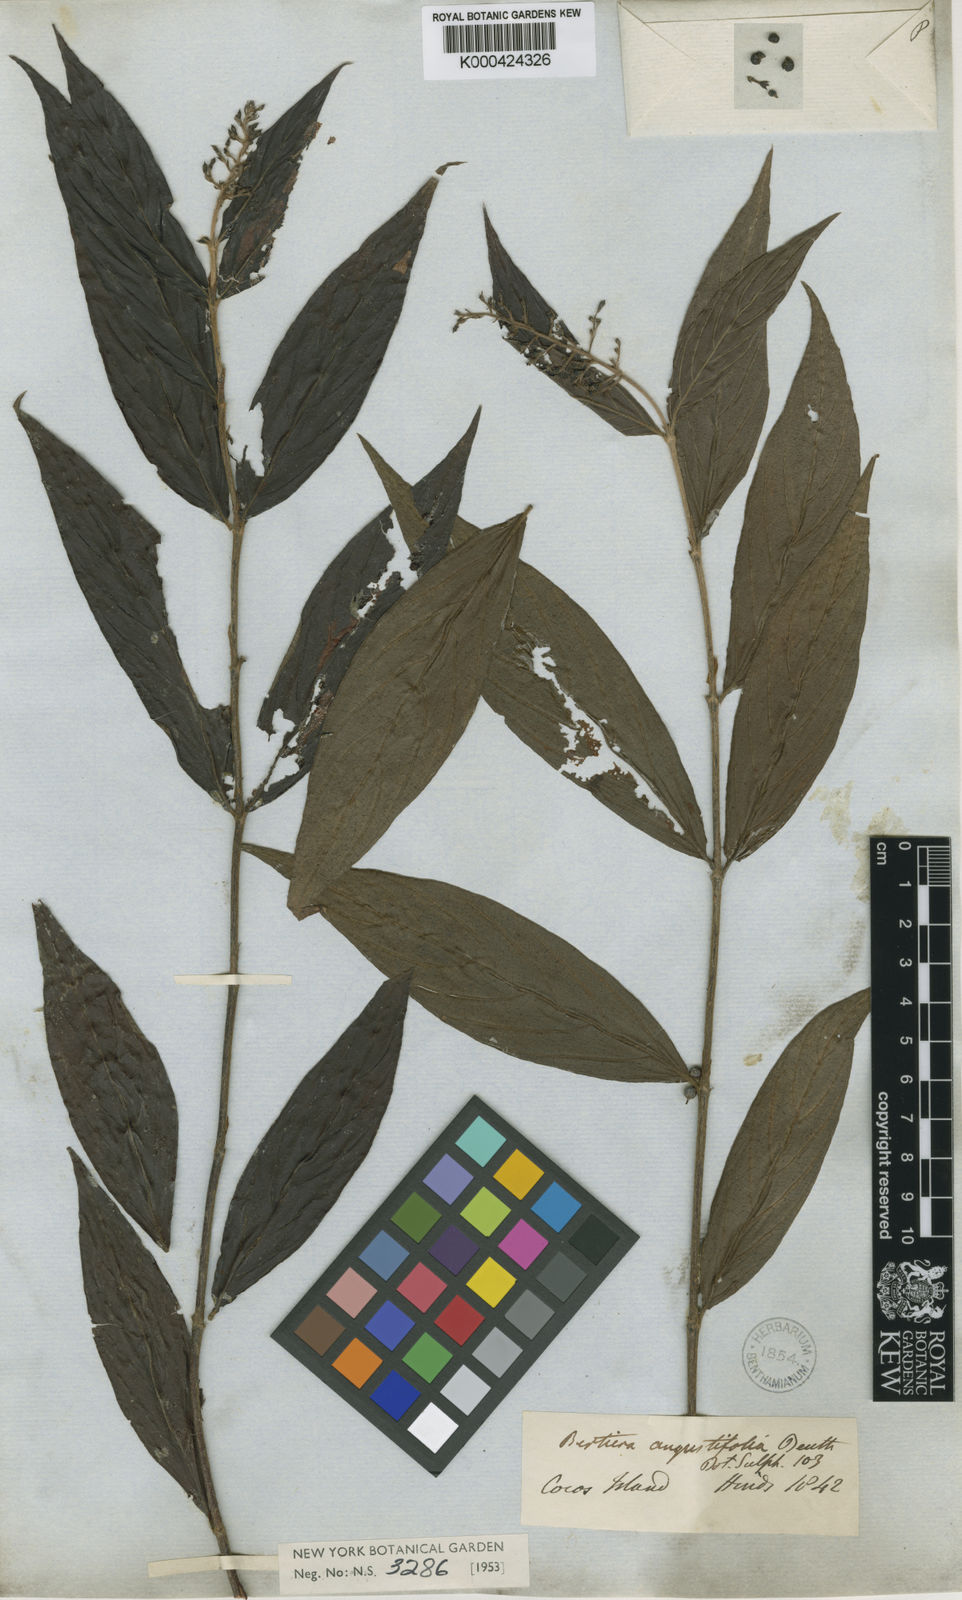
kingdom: Plantae
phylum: Tracheophyta
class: Magnoliopsida
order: Gentianales
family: Rubiaceae
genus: Bertiera
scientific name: Bertiera angustifolia
